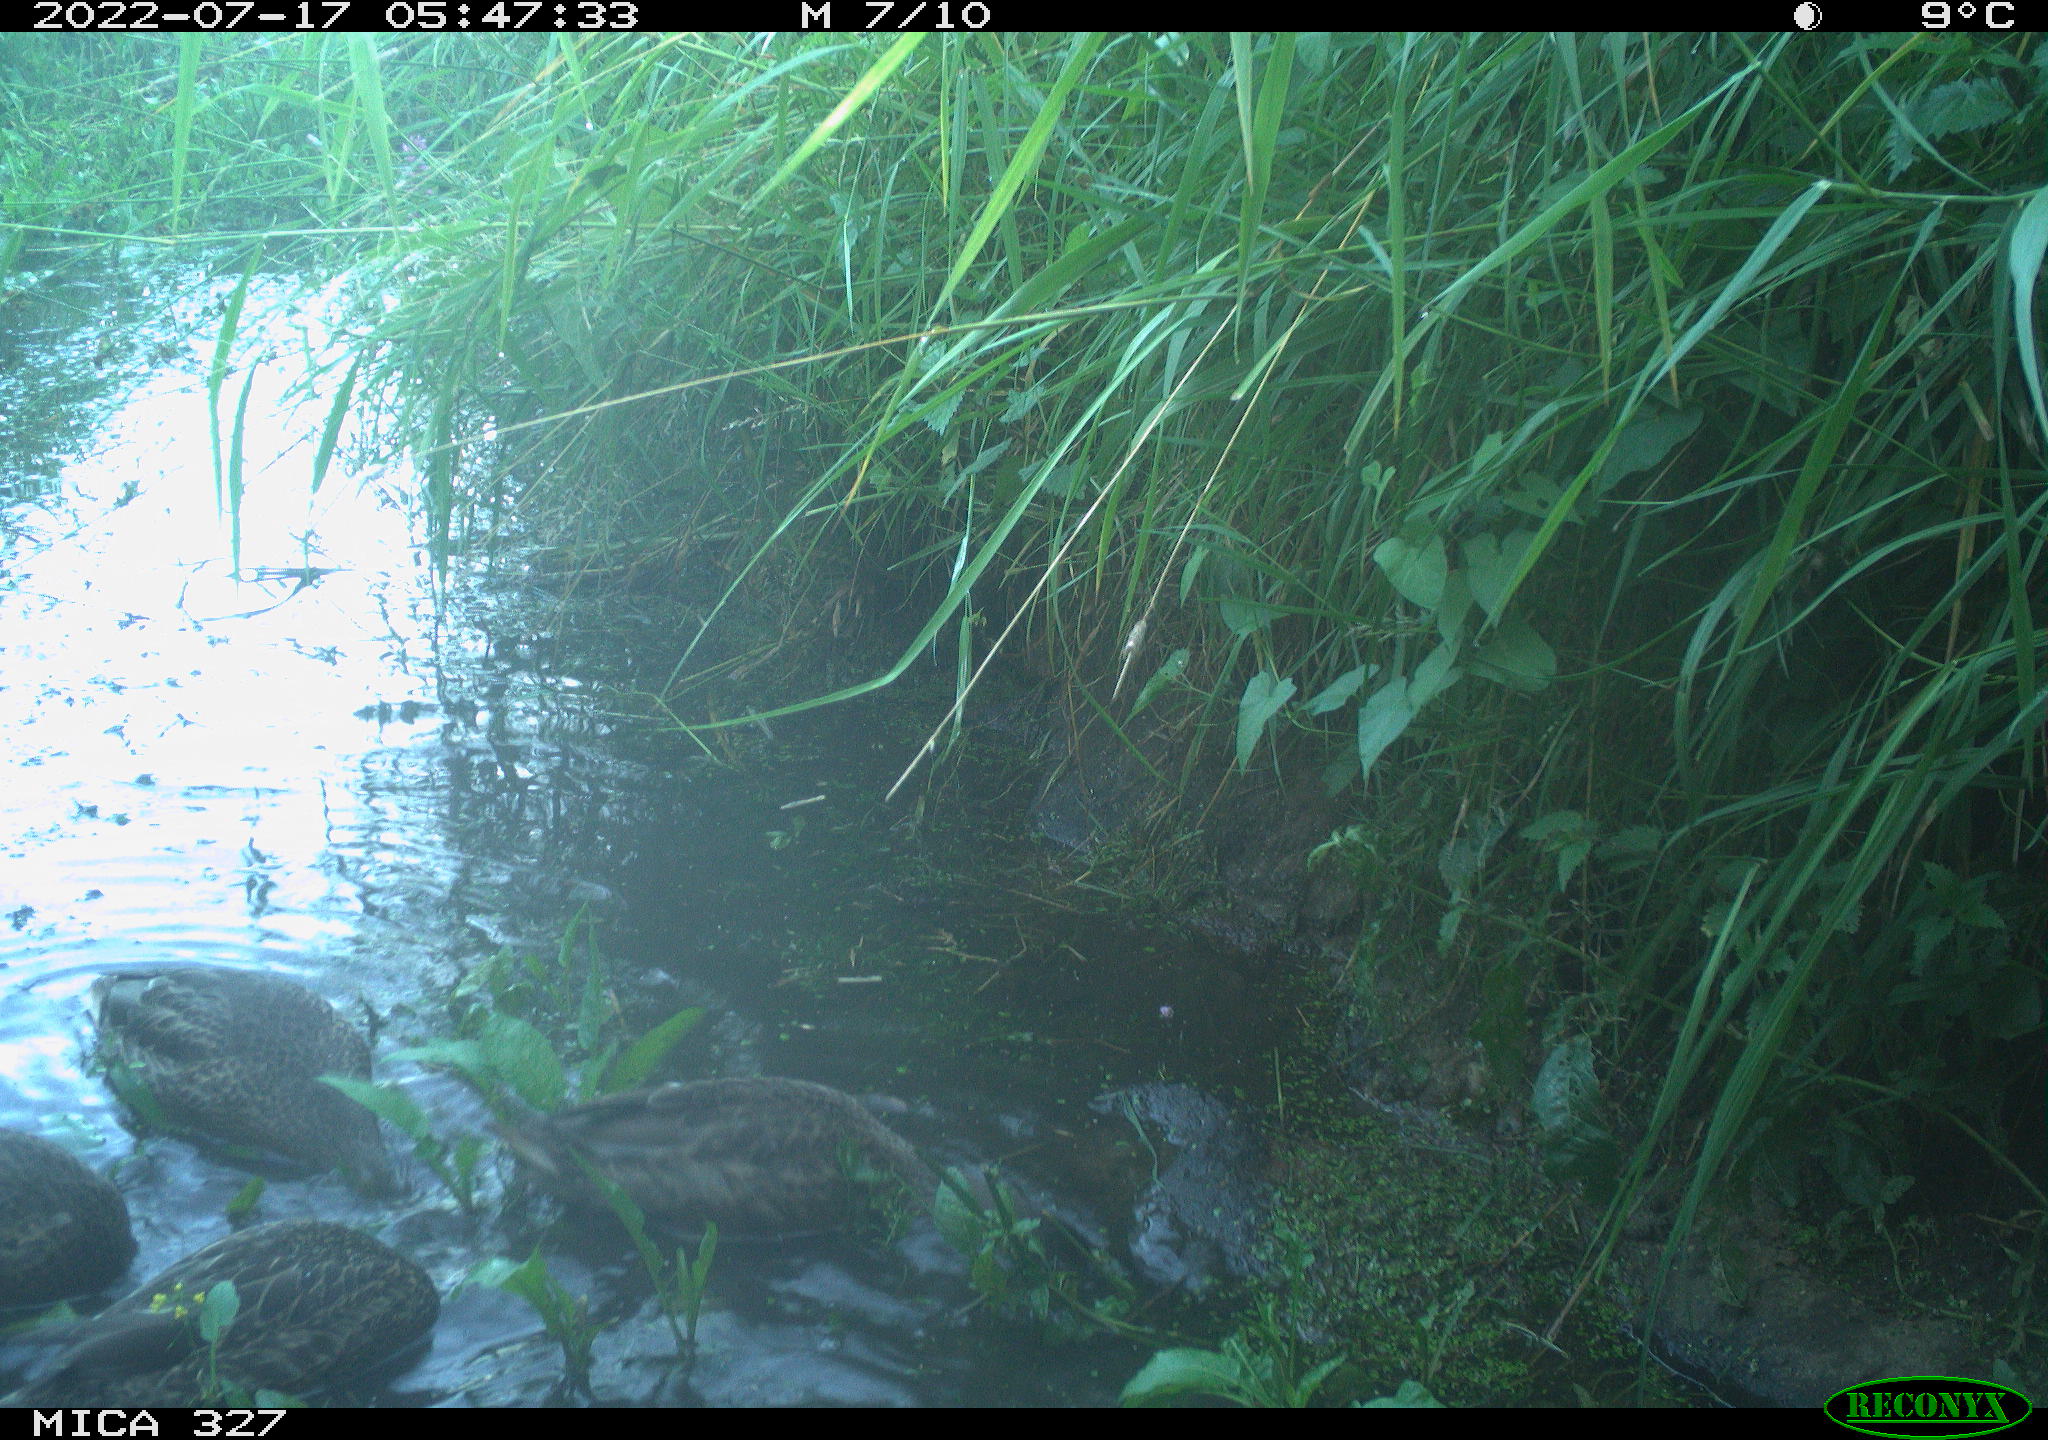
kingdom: Animalia
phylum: Chordata
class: Aves
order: Anseriformes
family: Anatidae
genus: Anas
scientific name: Anas
